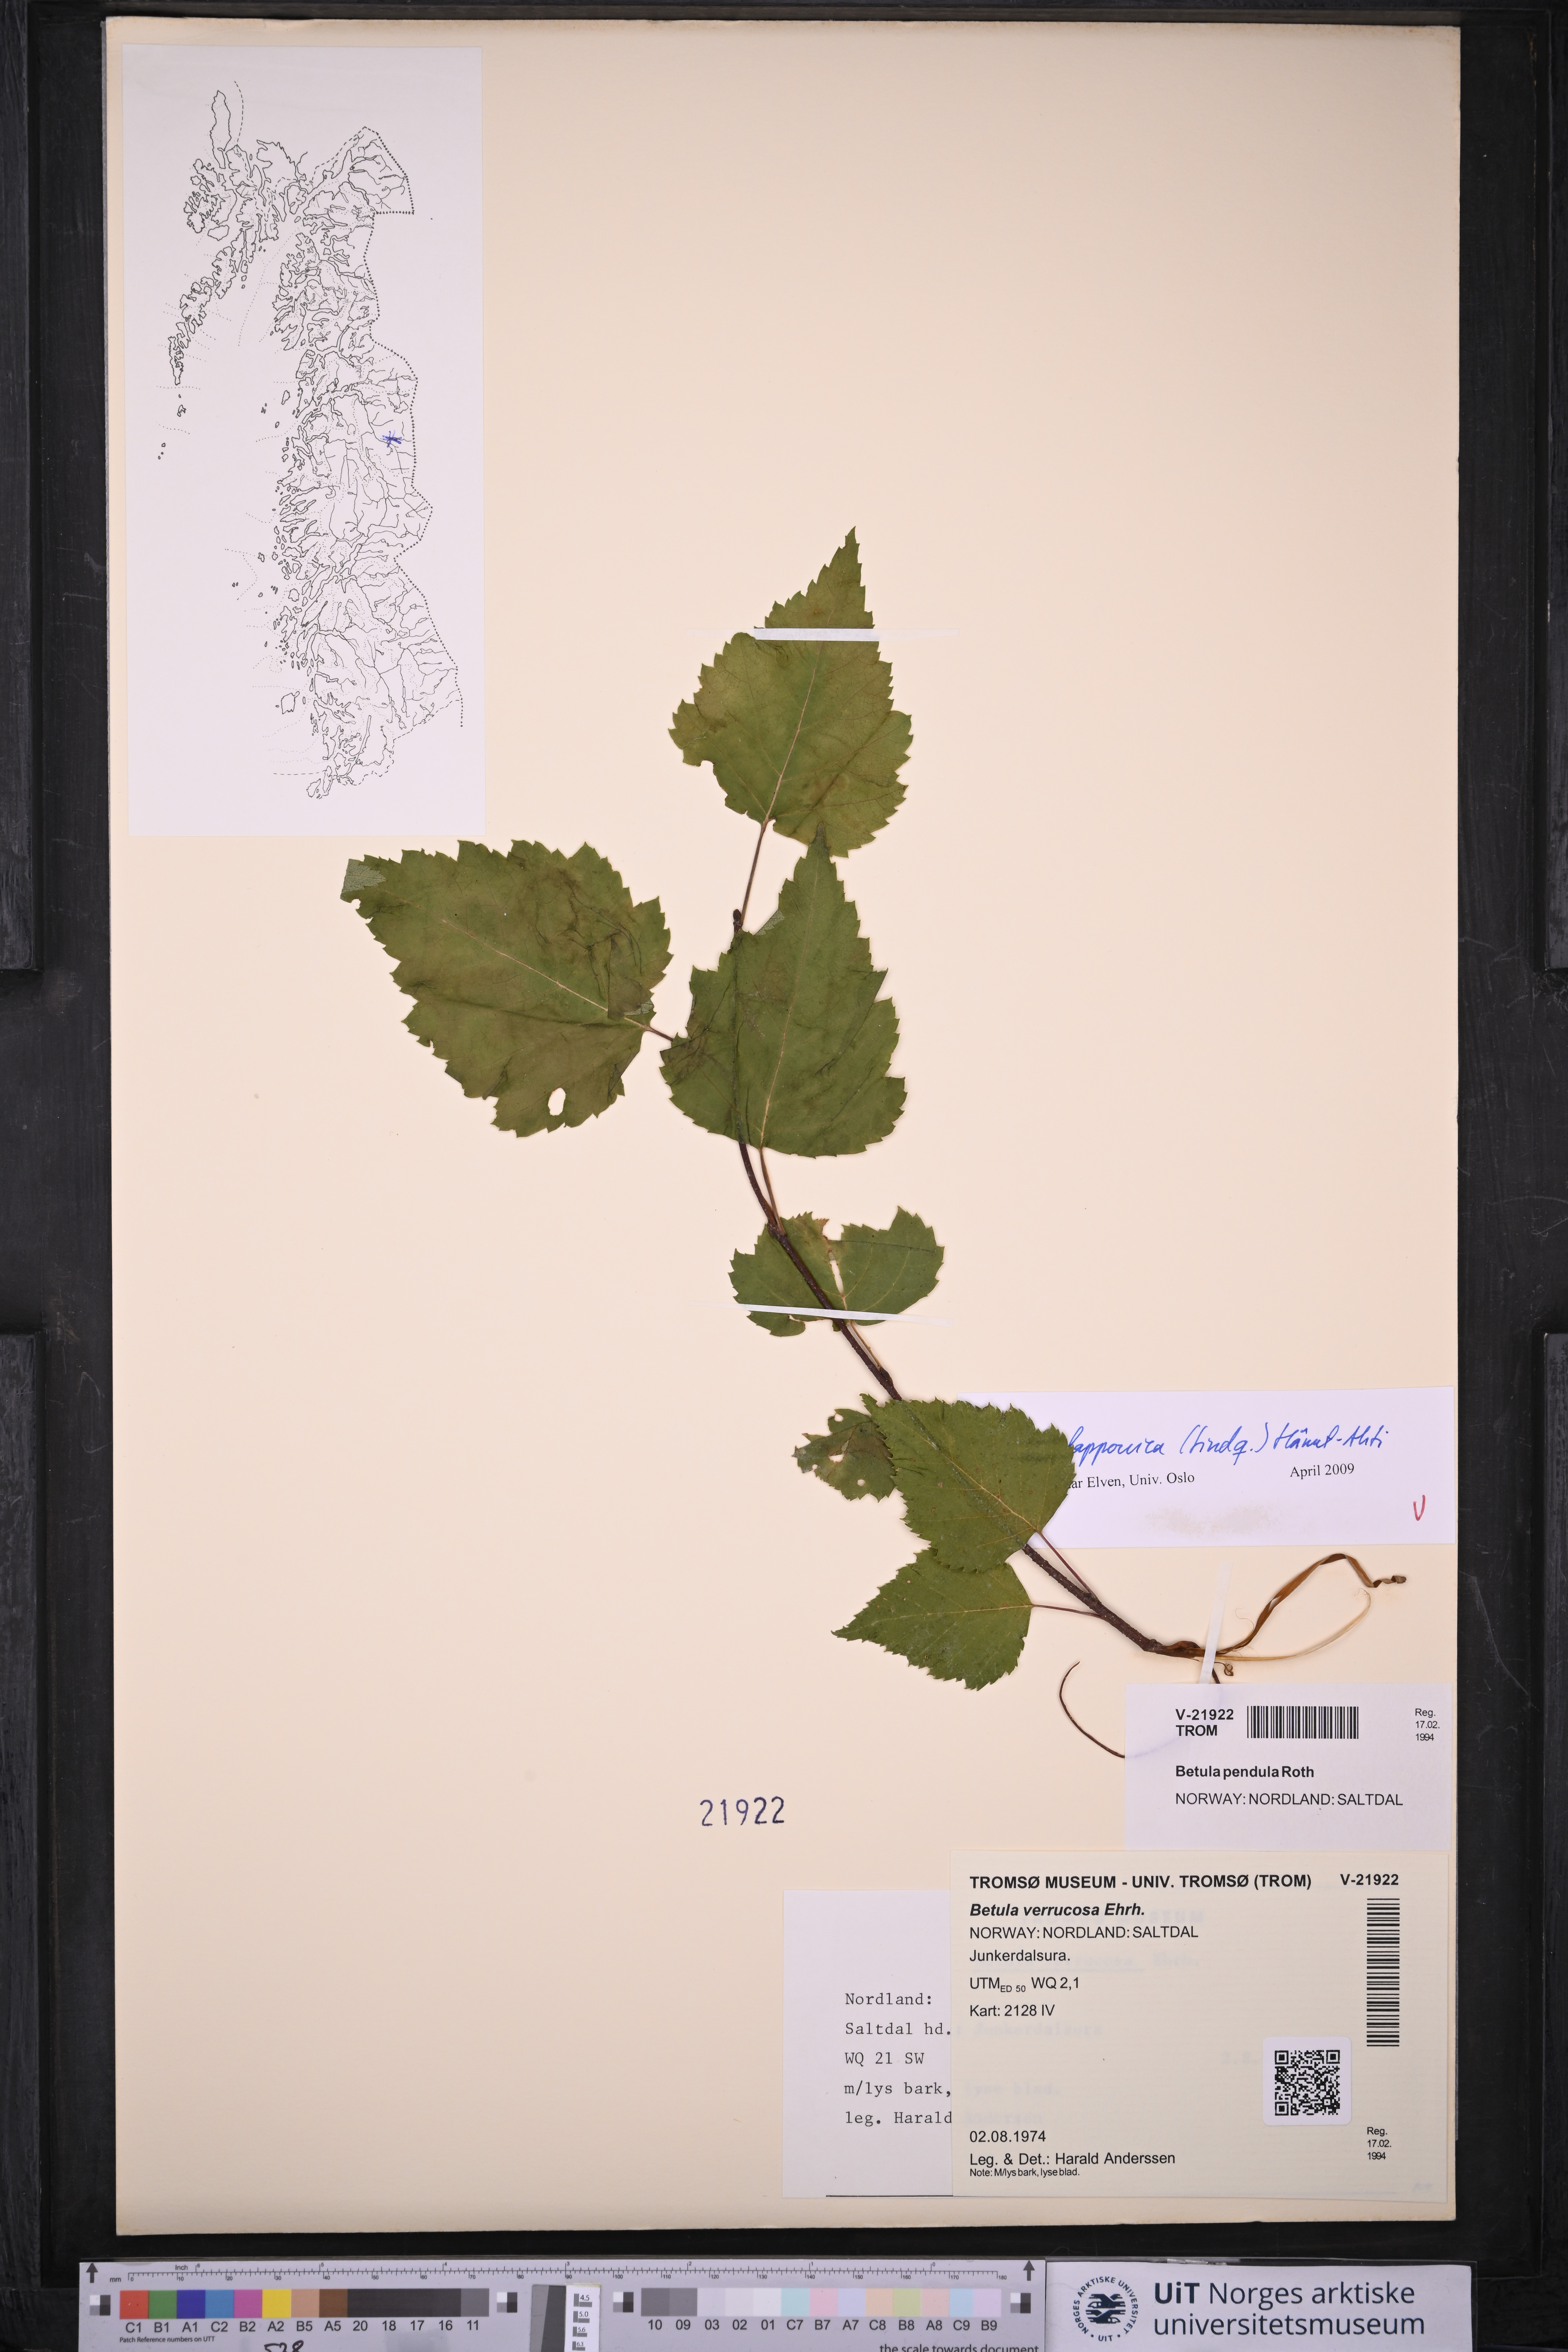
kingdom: Plantae
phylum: Tracheophyta
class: Magnoliopsida
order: Fagales
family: Betulaceae
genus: Betula
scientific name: Betula pendula
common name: Silver birch
